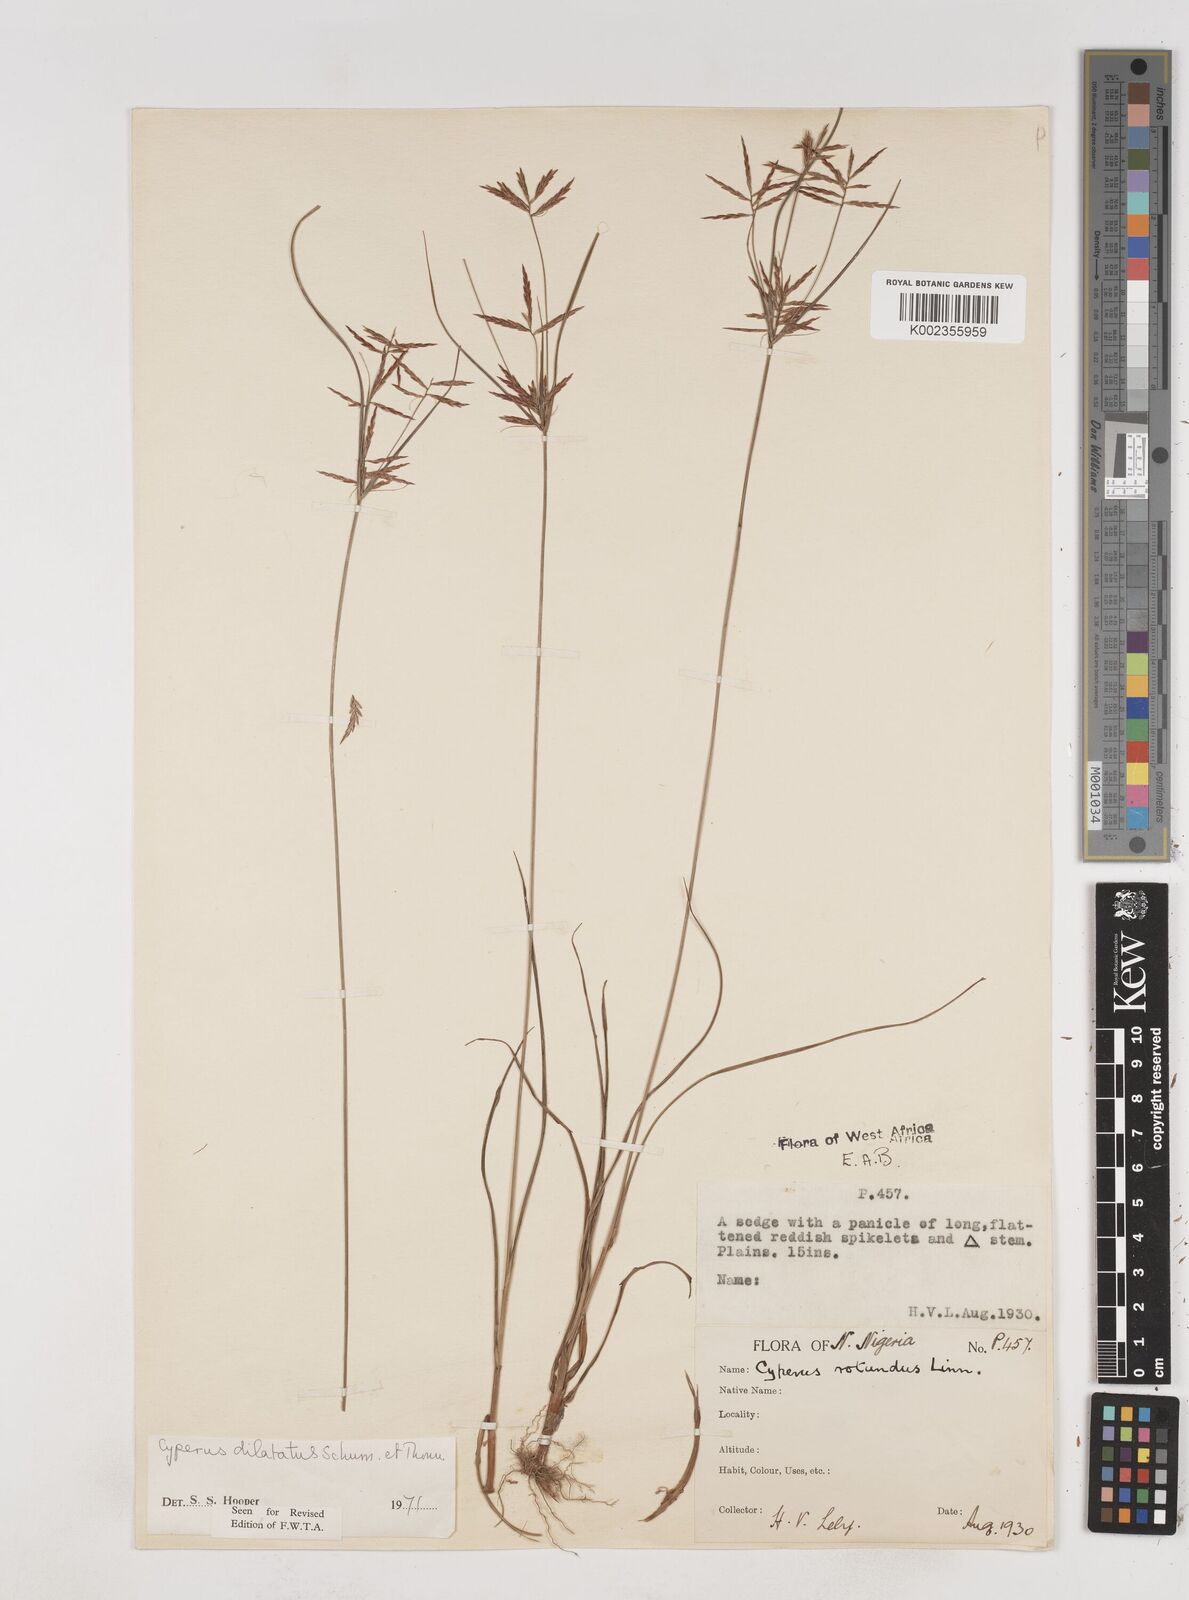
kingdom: Plantae
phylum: Tracheophyta
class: Liliopsida
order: Poales
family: Cyperaceae
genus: Cyperus
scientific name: Cyperus dilatatus
